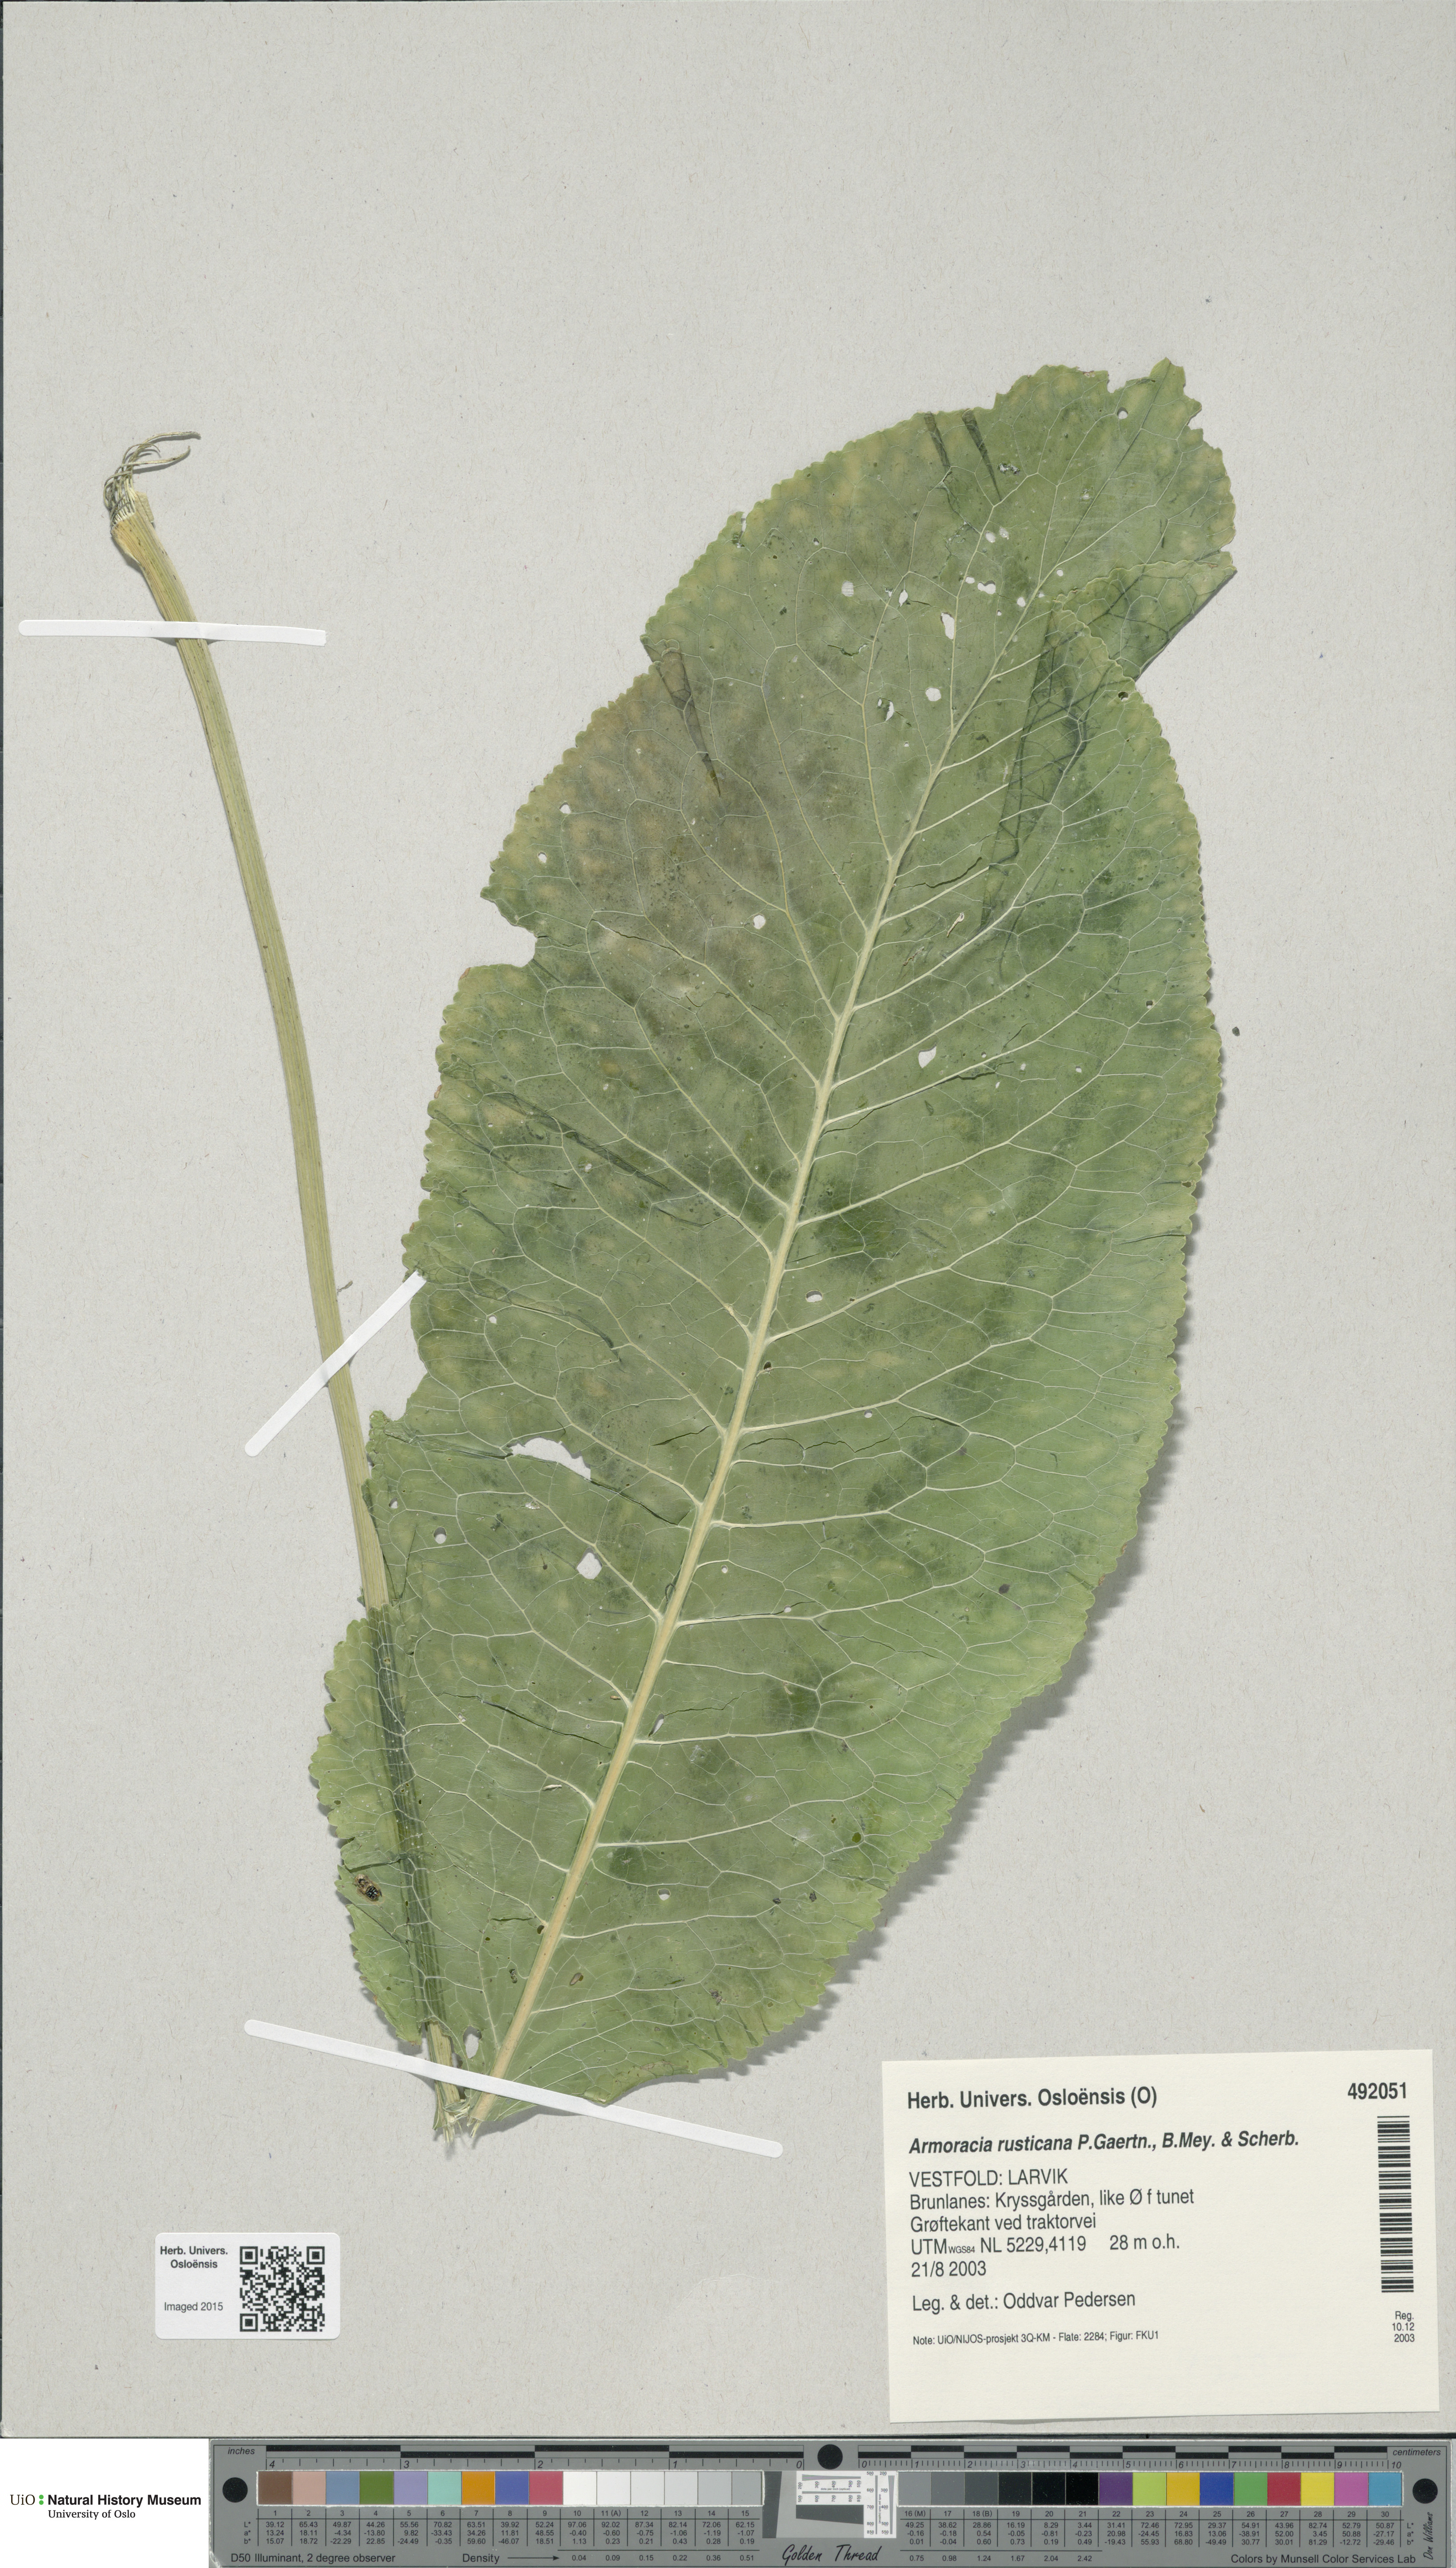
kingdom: Plantae
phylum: Tracheophyta
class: Magnoliopsida
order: Brassicales
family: Brassicaceae
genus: Armoracia
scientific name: Armoracia rusticana
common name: Horseradish
